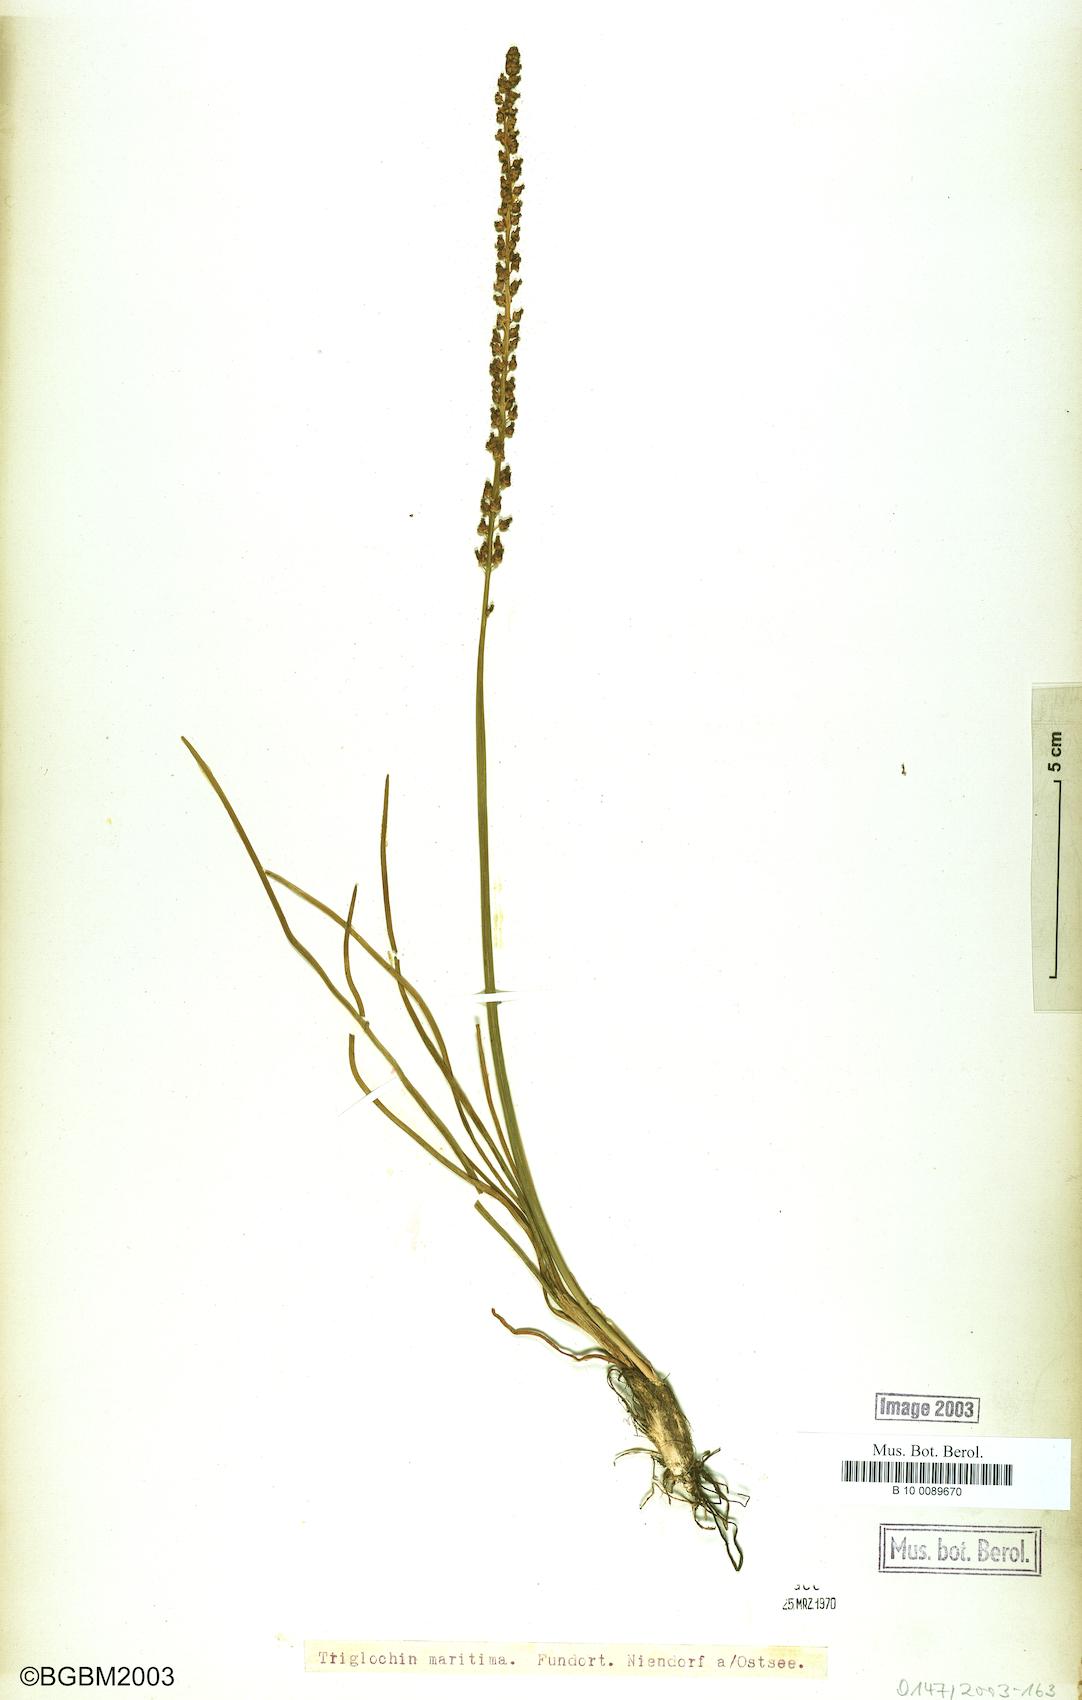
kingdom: Plantae
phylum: Tracheophyta
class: Liliopsida
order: Alismatales
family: Juncaginaceae
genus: Triglochin
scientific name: Triglochin maritima
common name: Sea arrowgrass
